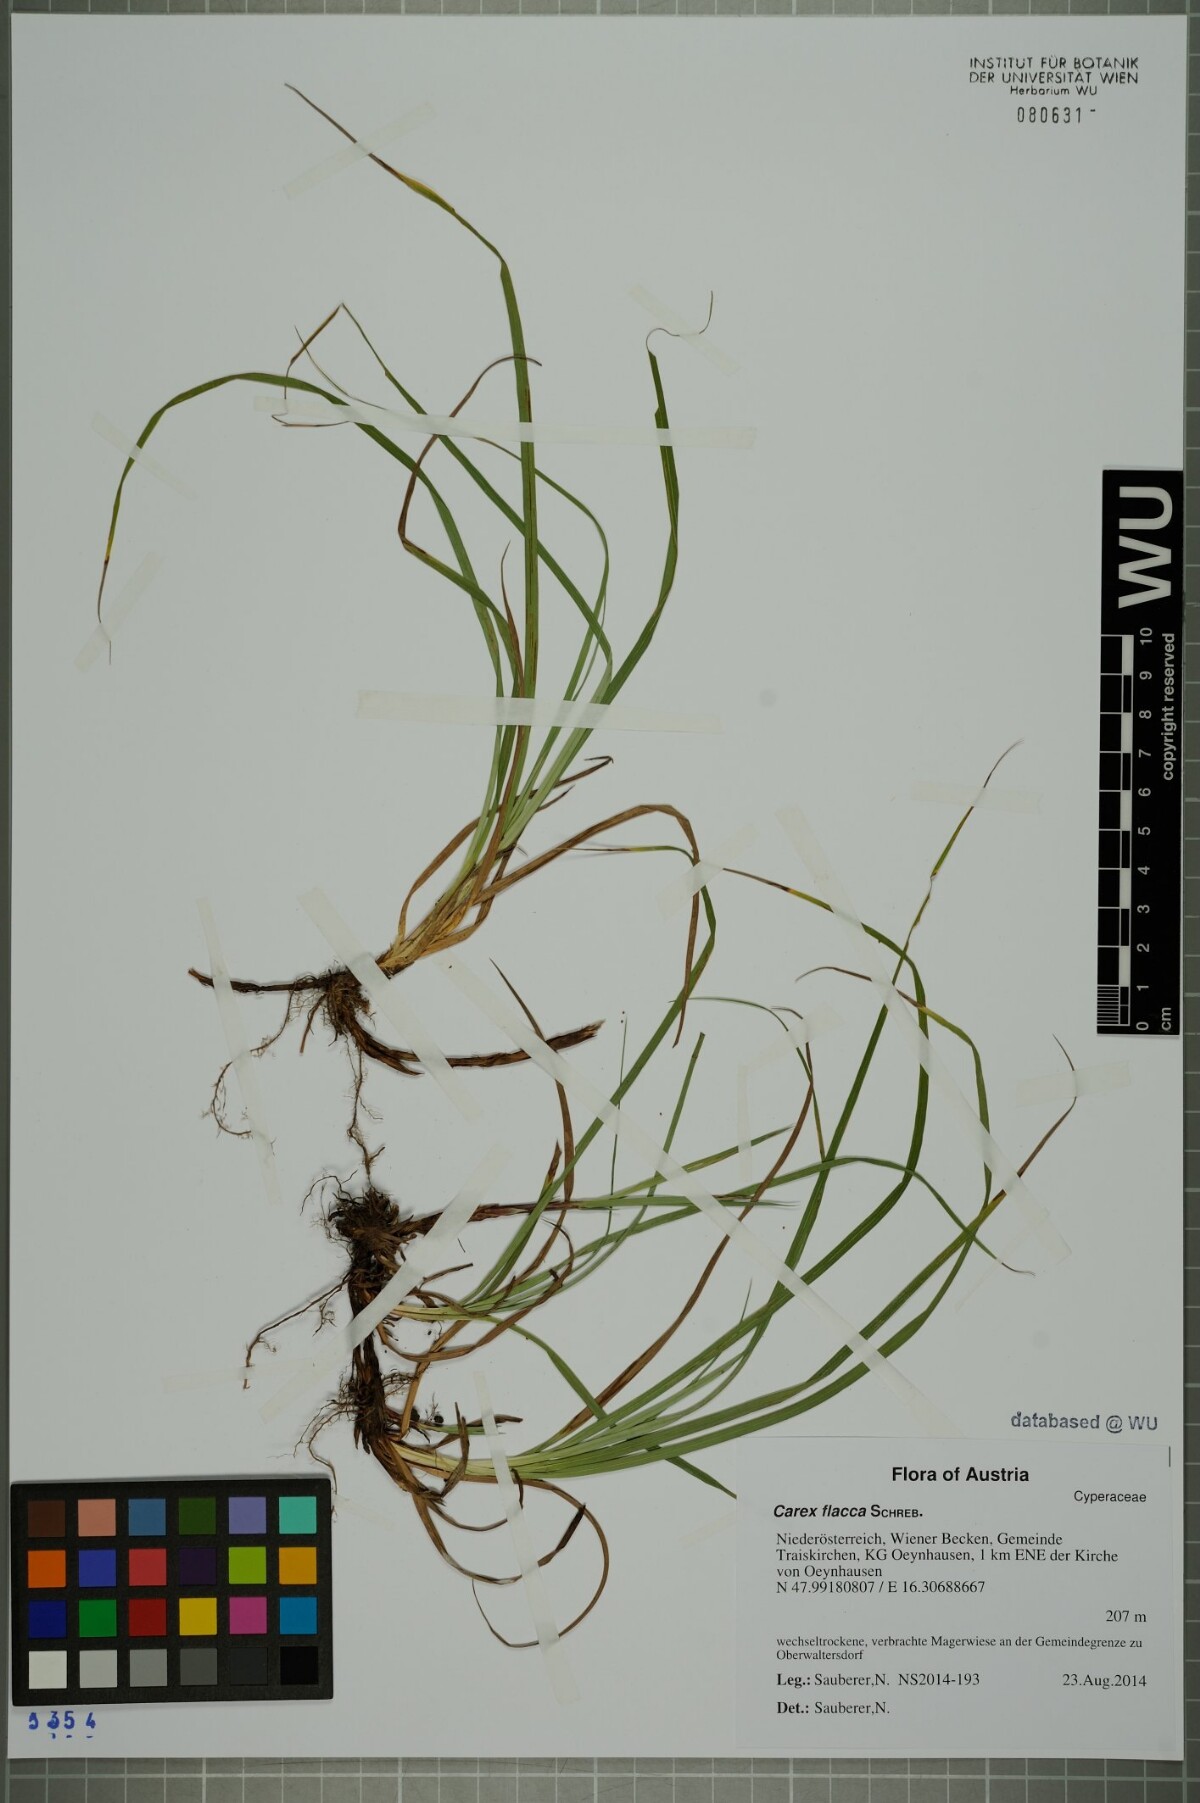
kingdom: Plantae
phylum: Tracheophyta
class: Liliopsida
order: Poales
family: Cyperaceae
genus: Carex
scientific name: Carex flacca
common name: Glaucous sedge
